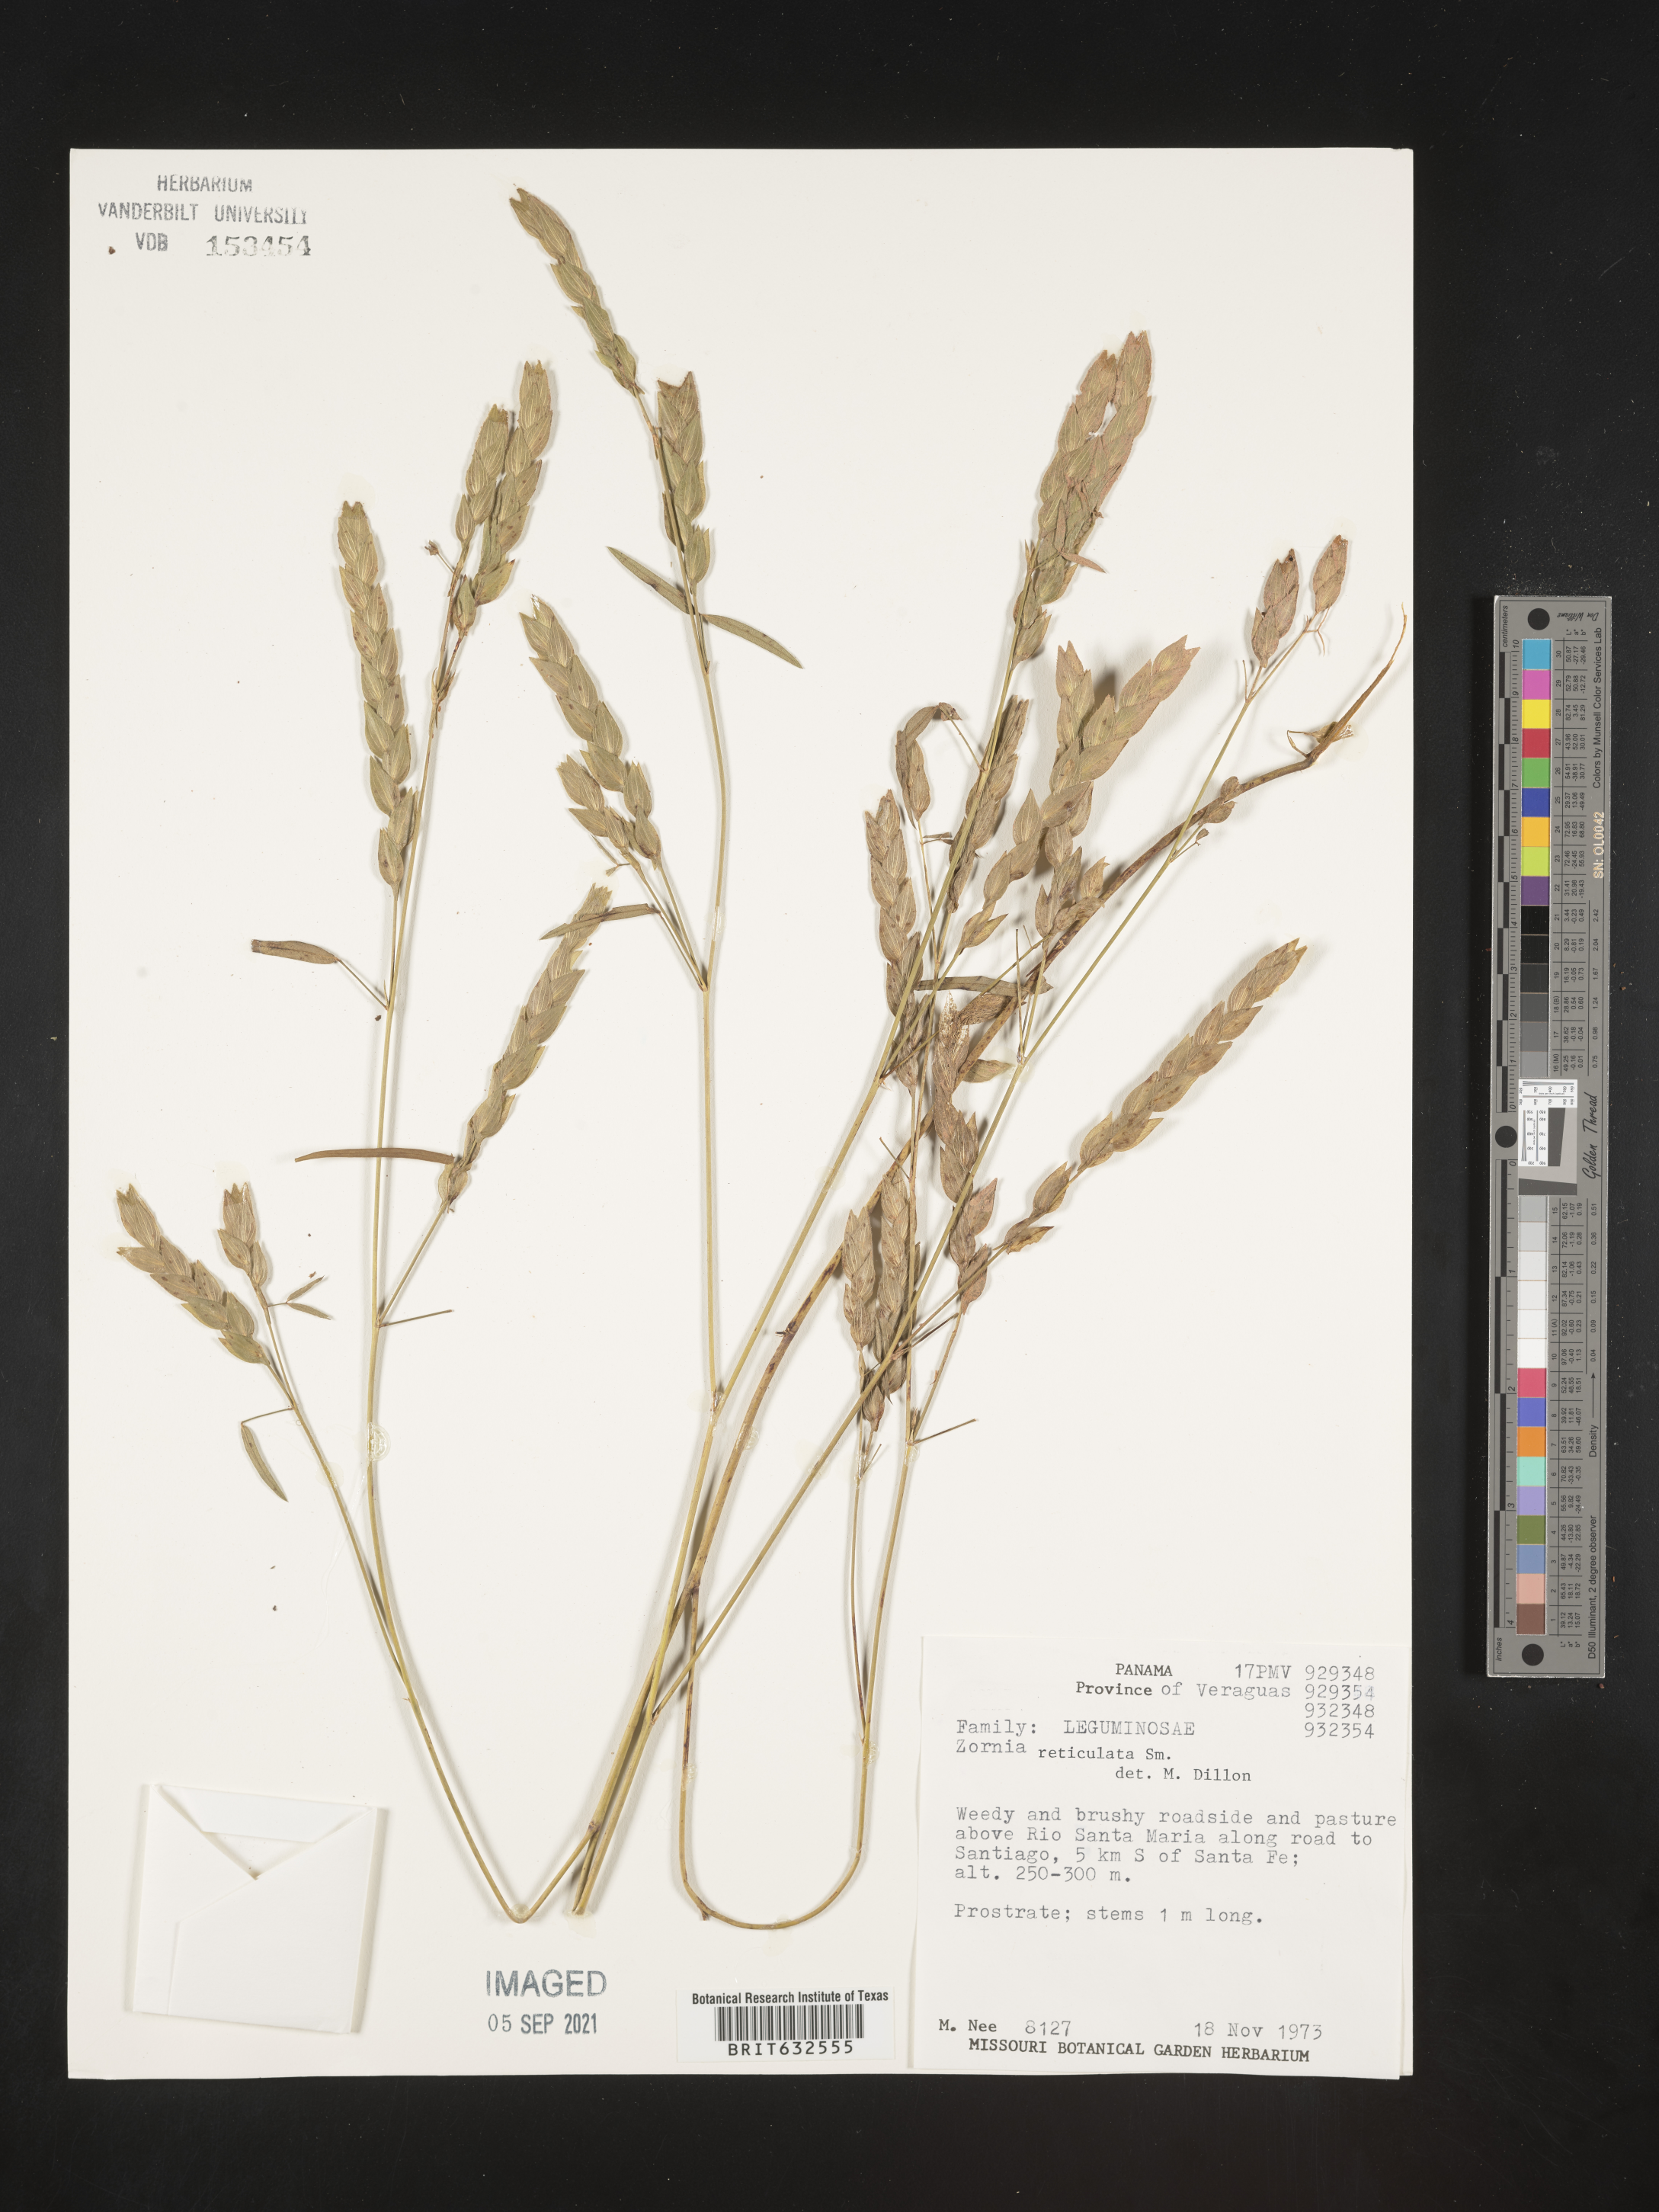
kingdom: Plantae
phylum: Tracheophyta
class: Magnoliopsida
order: Fabales
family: Fabaceae
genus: Zornia
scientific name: Zornia
